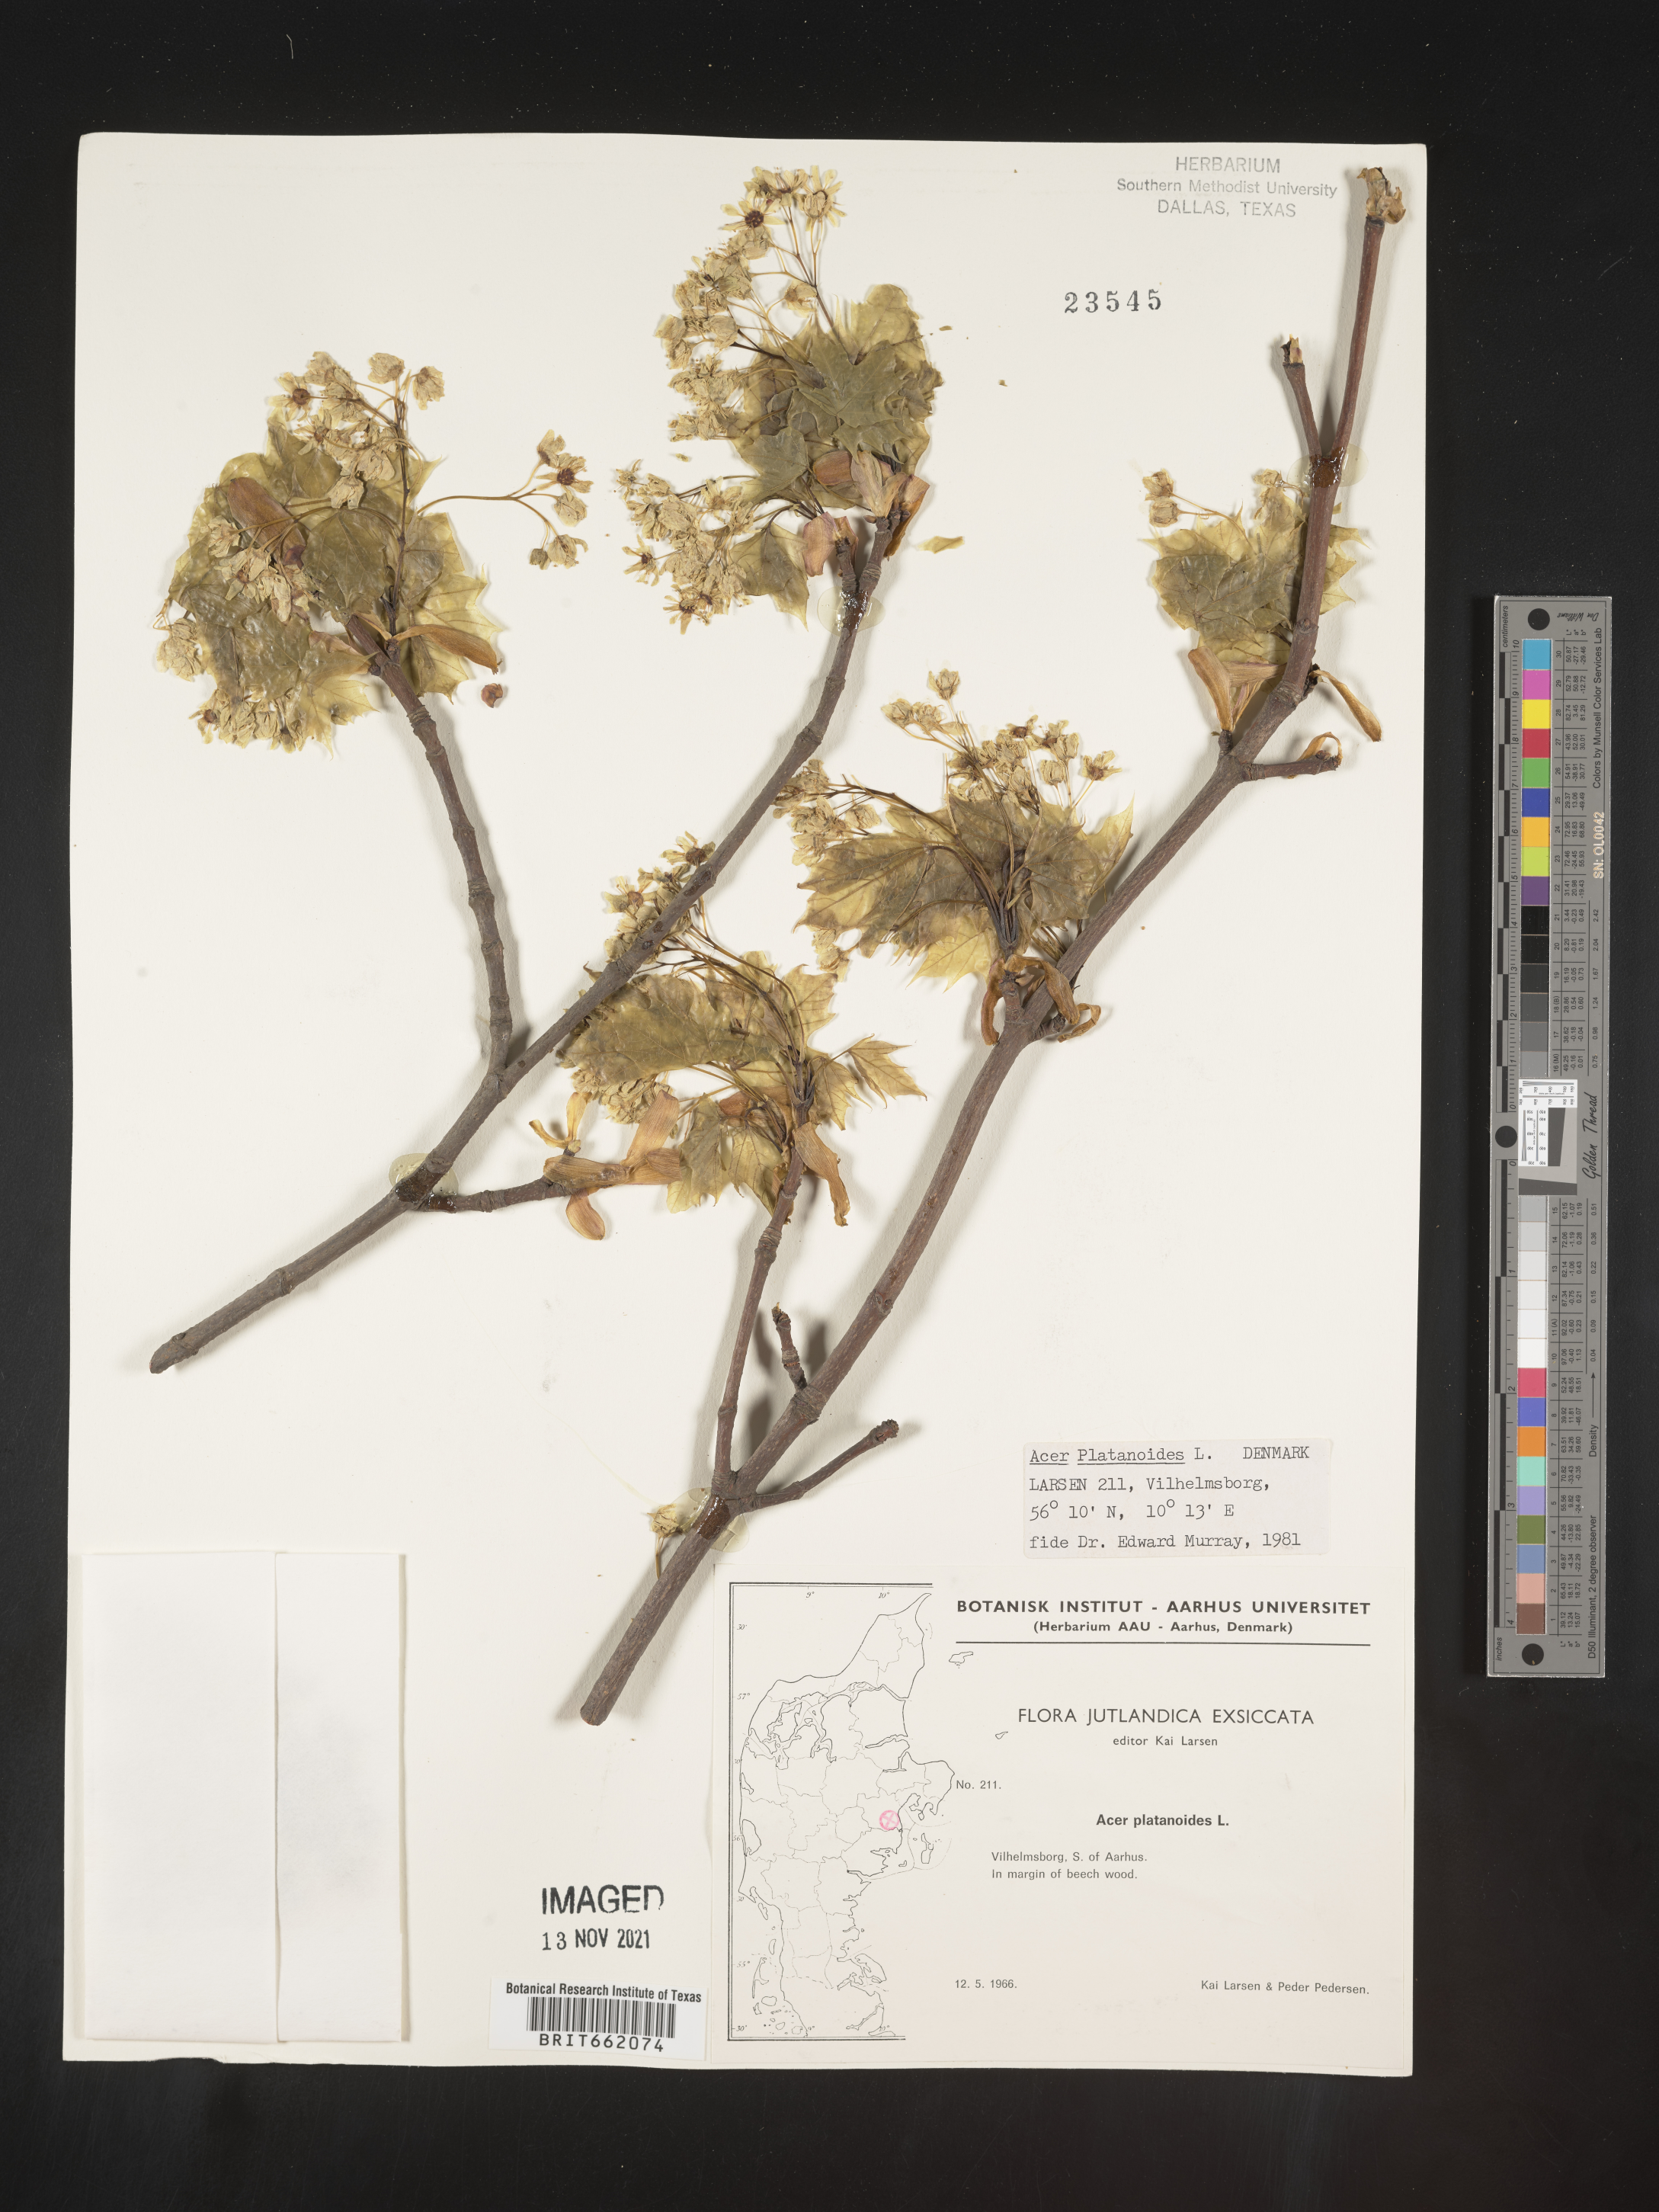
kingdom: Plantae
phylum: Tracheophyta
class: Magnoliopsida
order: Sapindales
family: Sapindaceae
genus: Acer
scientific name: Acer
